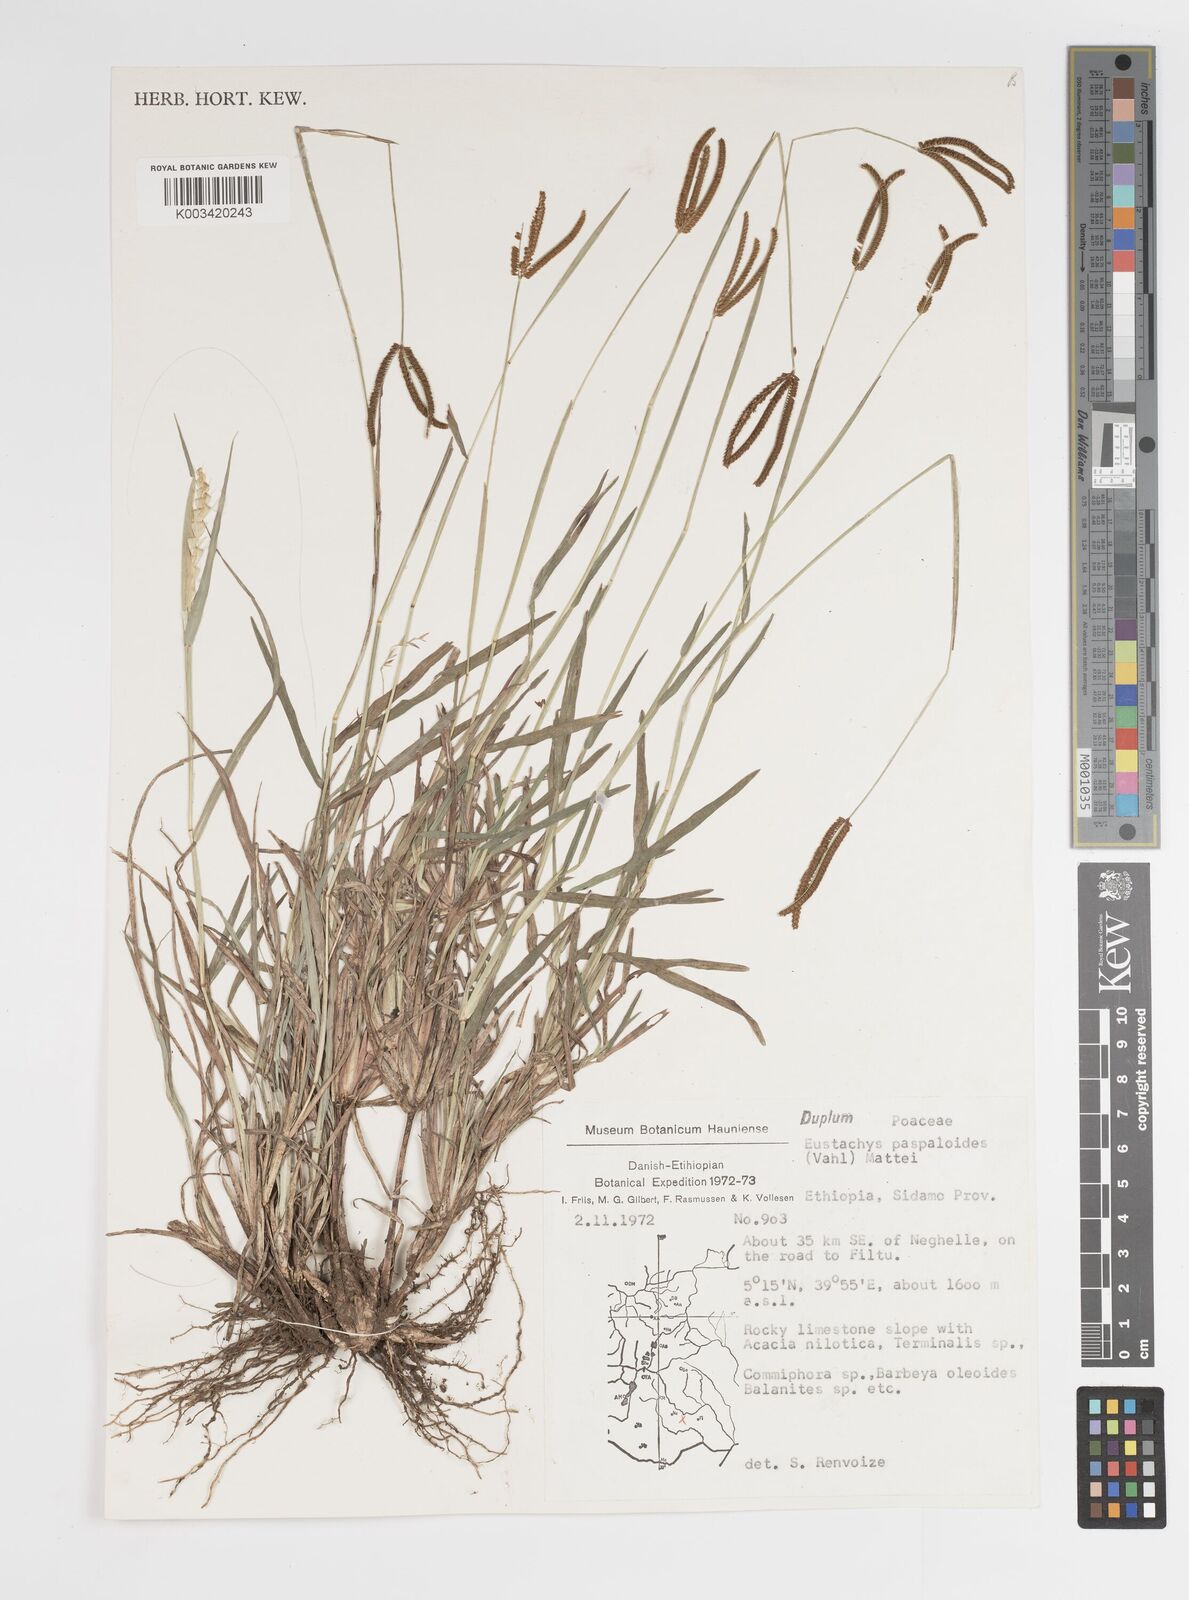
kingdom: Plantae
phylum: Tracheophyta
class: Liliopsida
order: Poales
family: Poaceae
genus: Eustachys
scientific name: Eustachys paspaloides
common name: Caribbean fingergrass
